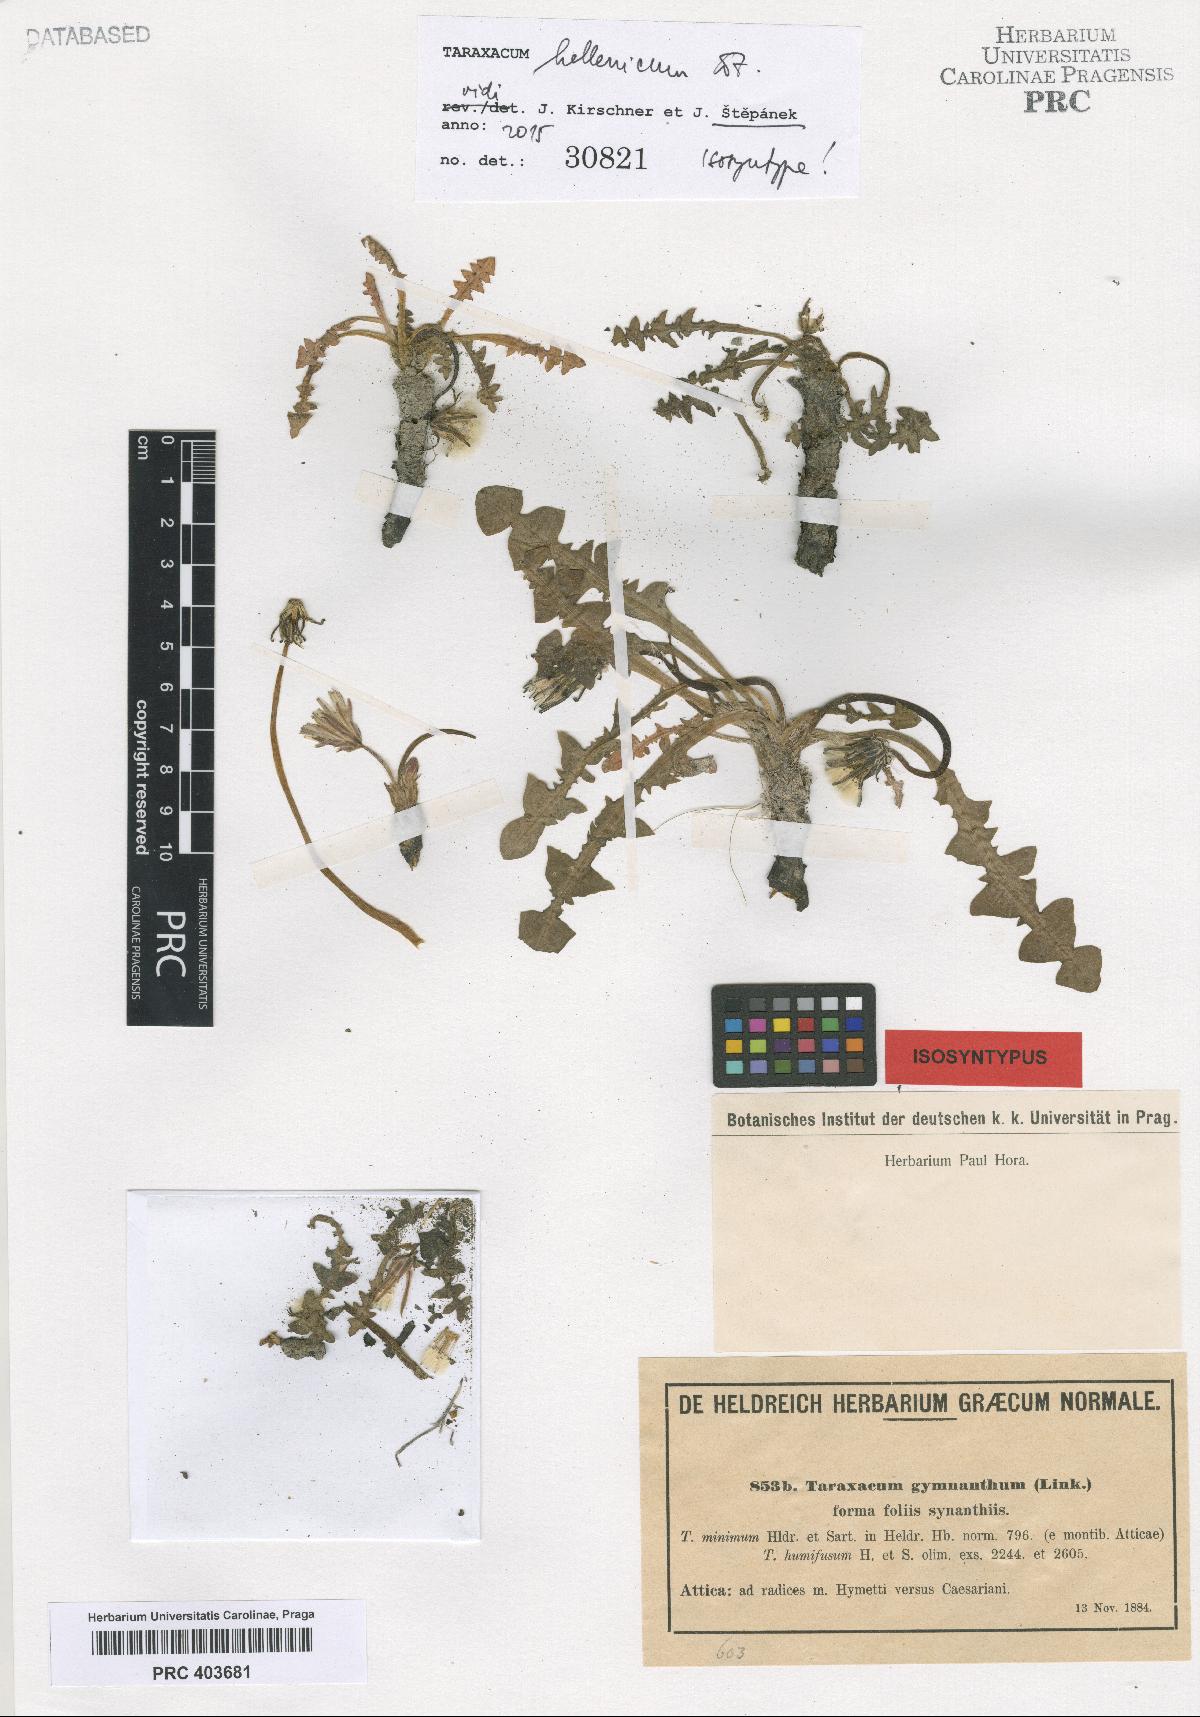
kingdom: Plantae
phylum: Tracheophyta
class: Magnoliopsida
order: Asterales
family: Asteraceae
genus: Taraxacum
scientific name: Taraxacum hellenicum
